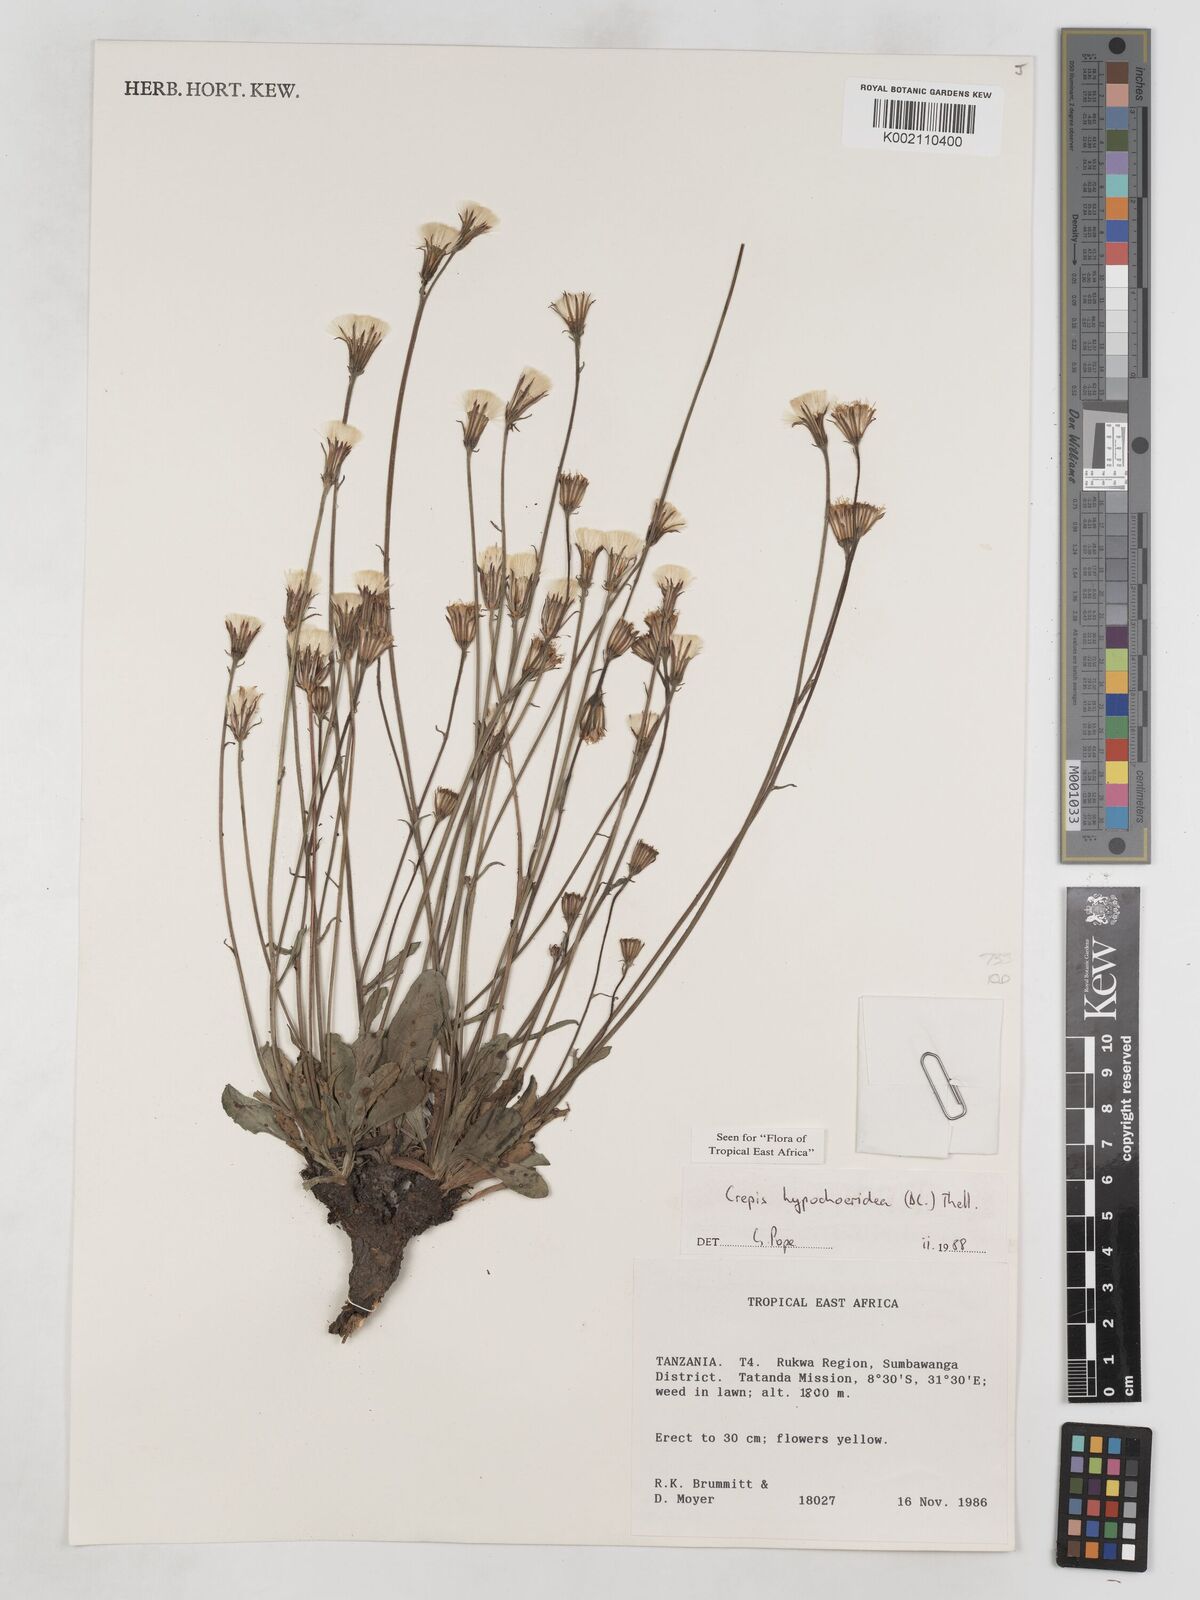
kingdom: Plantae
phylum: Tracheophyta
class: Magnoliopsida
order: Asterales
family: Asteraceae
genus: Crepis
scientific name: Crepis hypochoeridea
